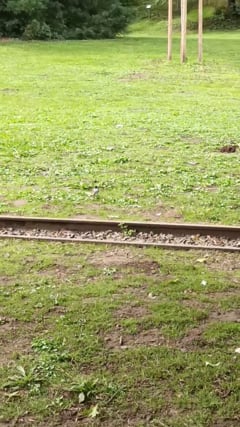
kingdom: Animalia
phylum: Chordata
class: Aves
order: Passeriformes
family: Motacillidae
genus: Motacilla
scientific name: Motacilla alba
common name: White wagtail
